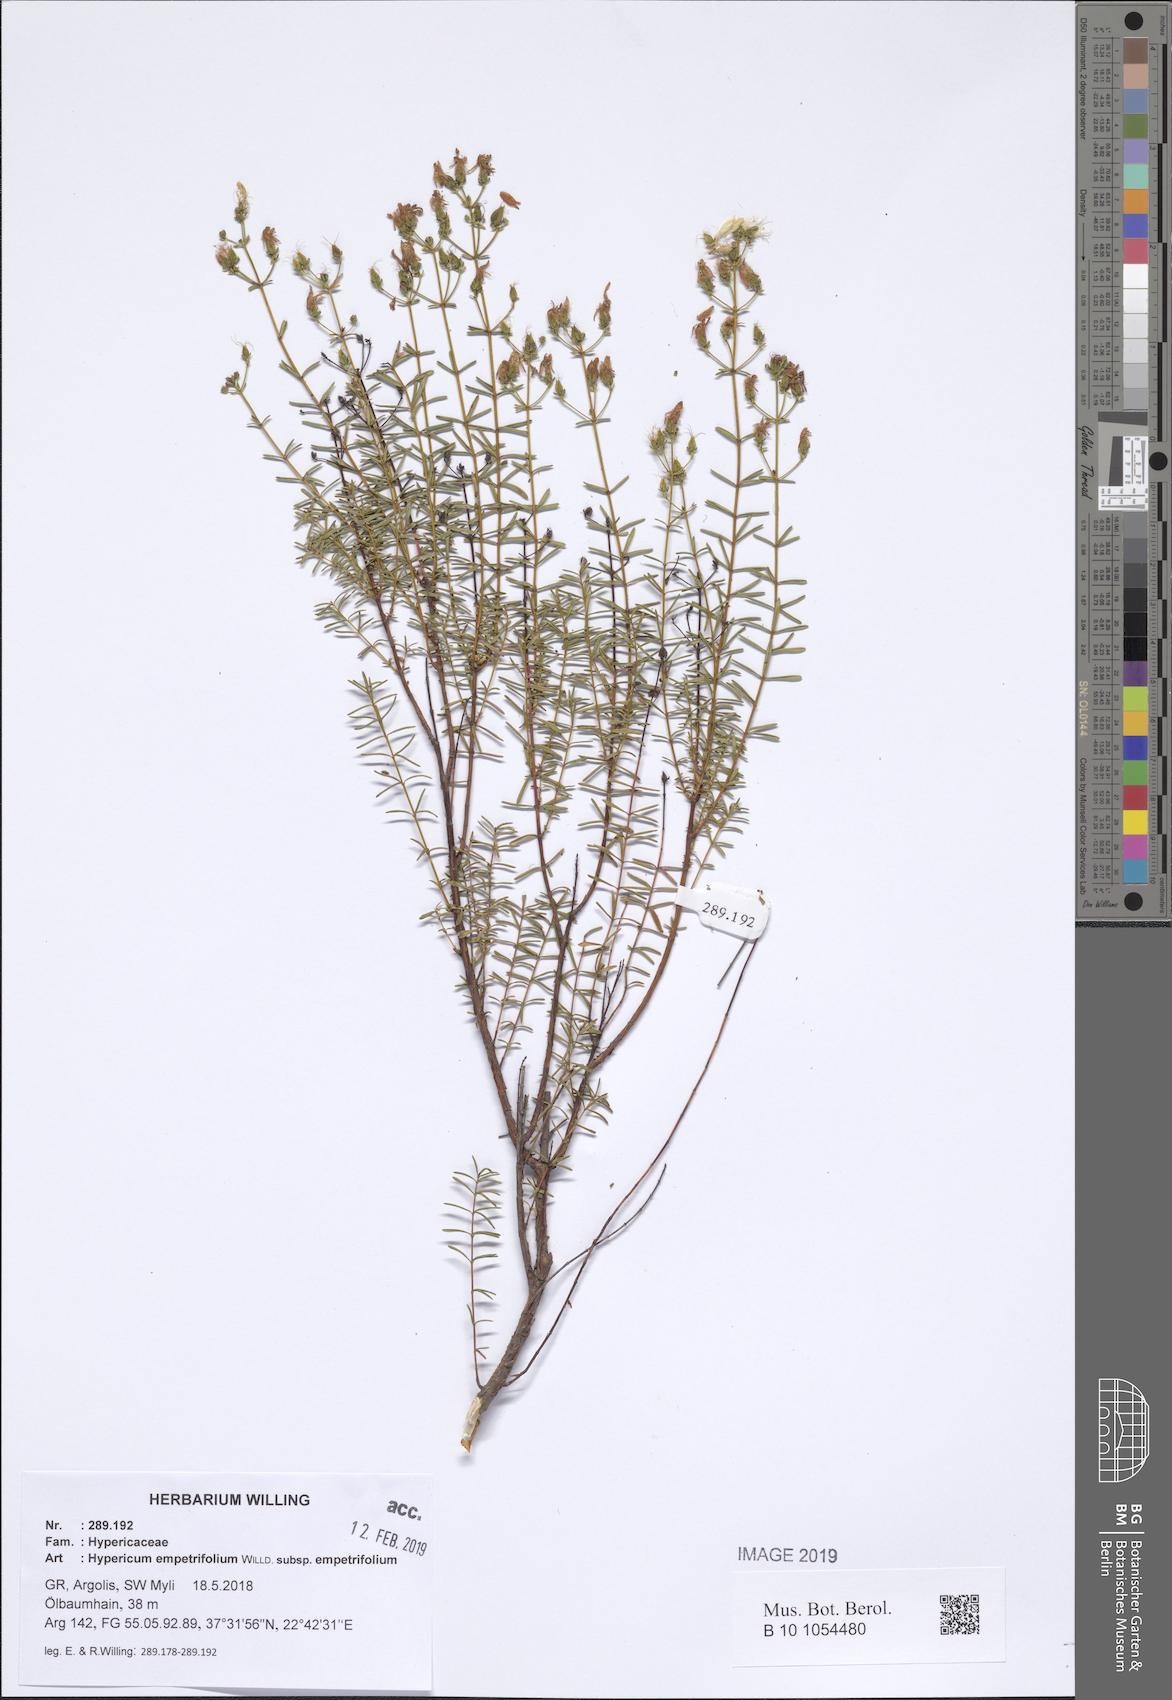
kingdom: Plantae
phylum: Tracheophyta
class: Magnoliopsida
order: Malpighiales
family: Hypericaceae
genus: Hypericum
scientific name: Hypericum empetrifolium
